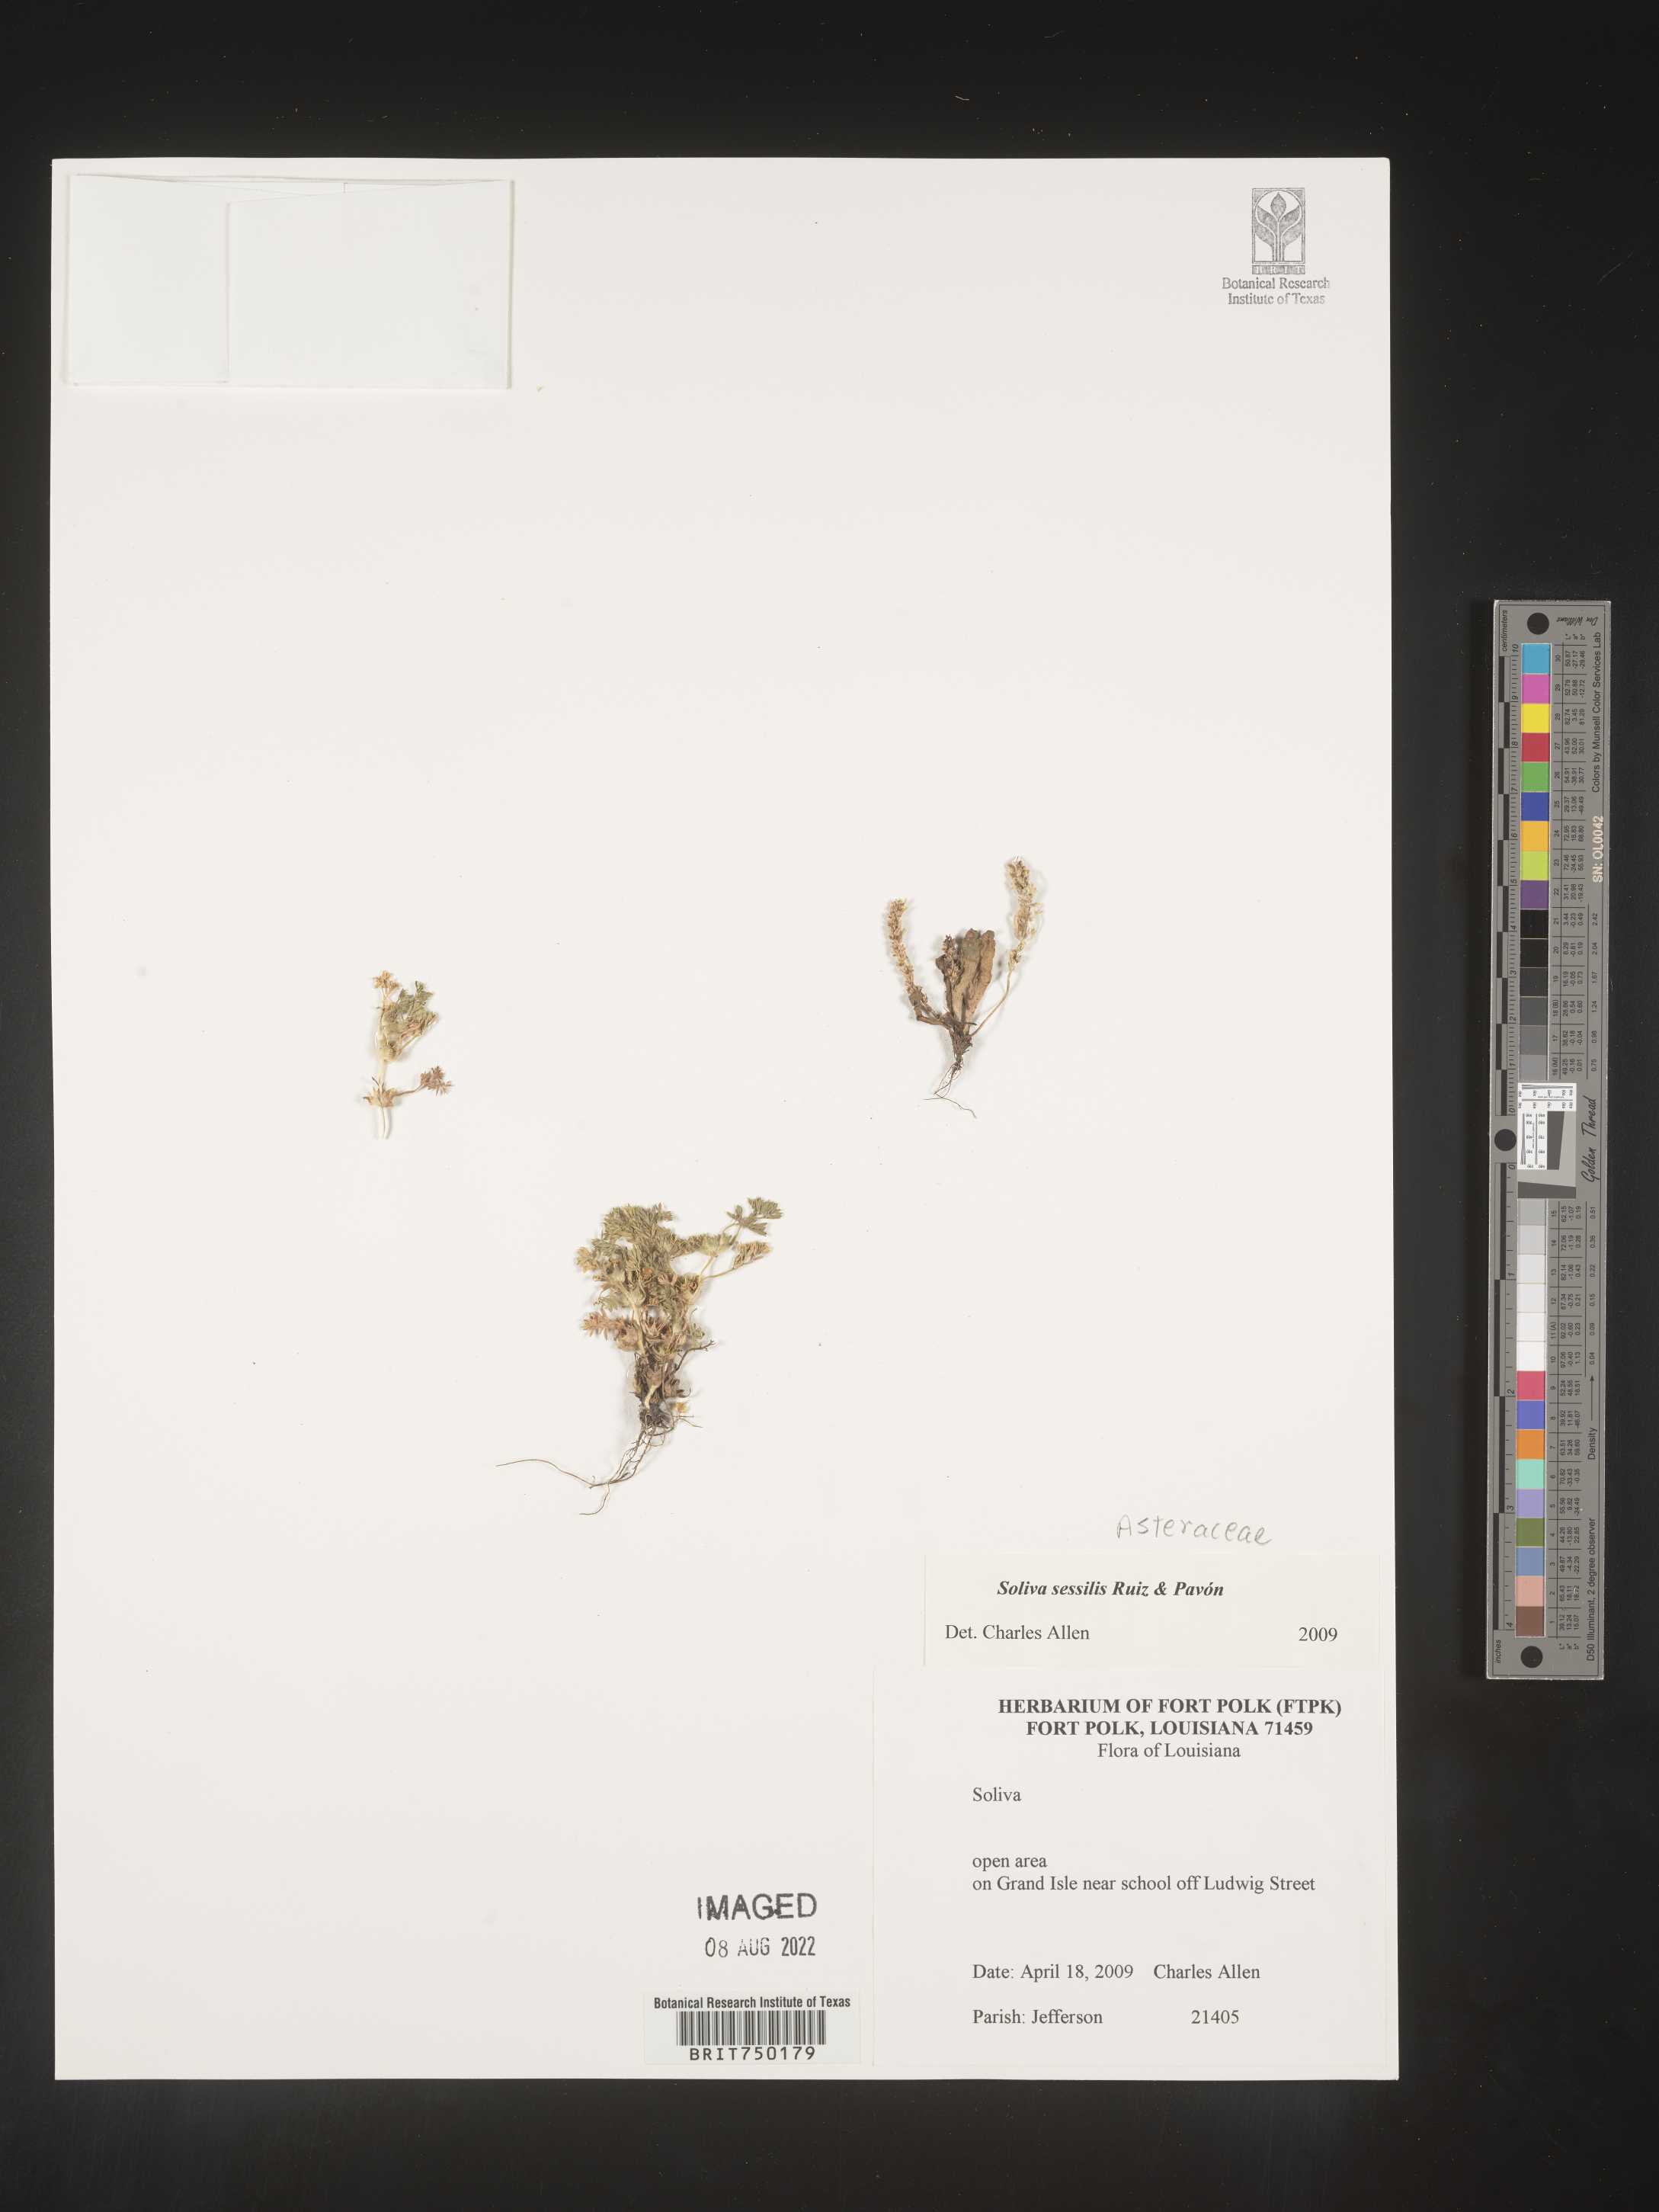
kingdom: Plantae
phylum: Tracheophyta
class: Magnoliopsida
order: Asterales
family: Asteraceae
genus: Soliva
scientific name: Soliva sessilis
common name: Field burrweed
